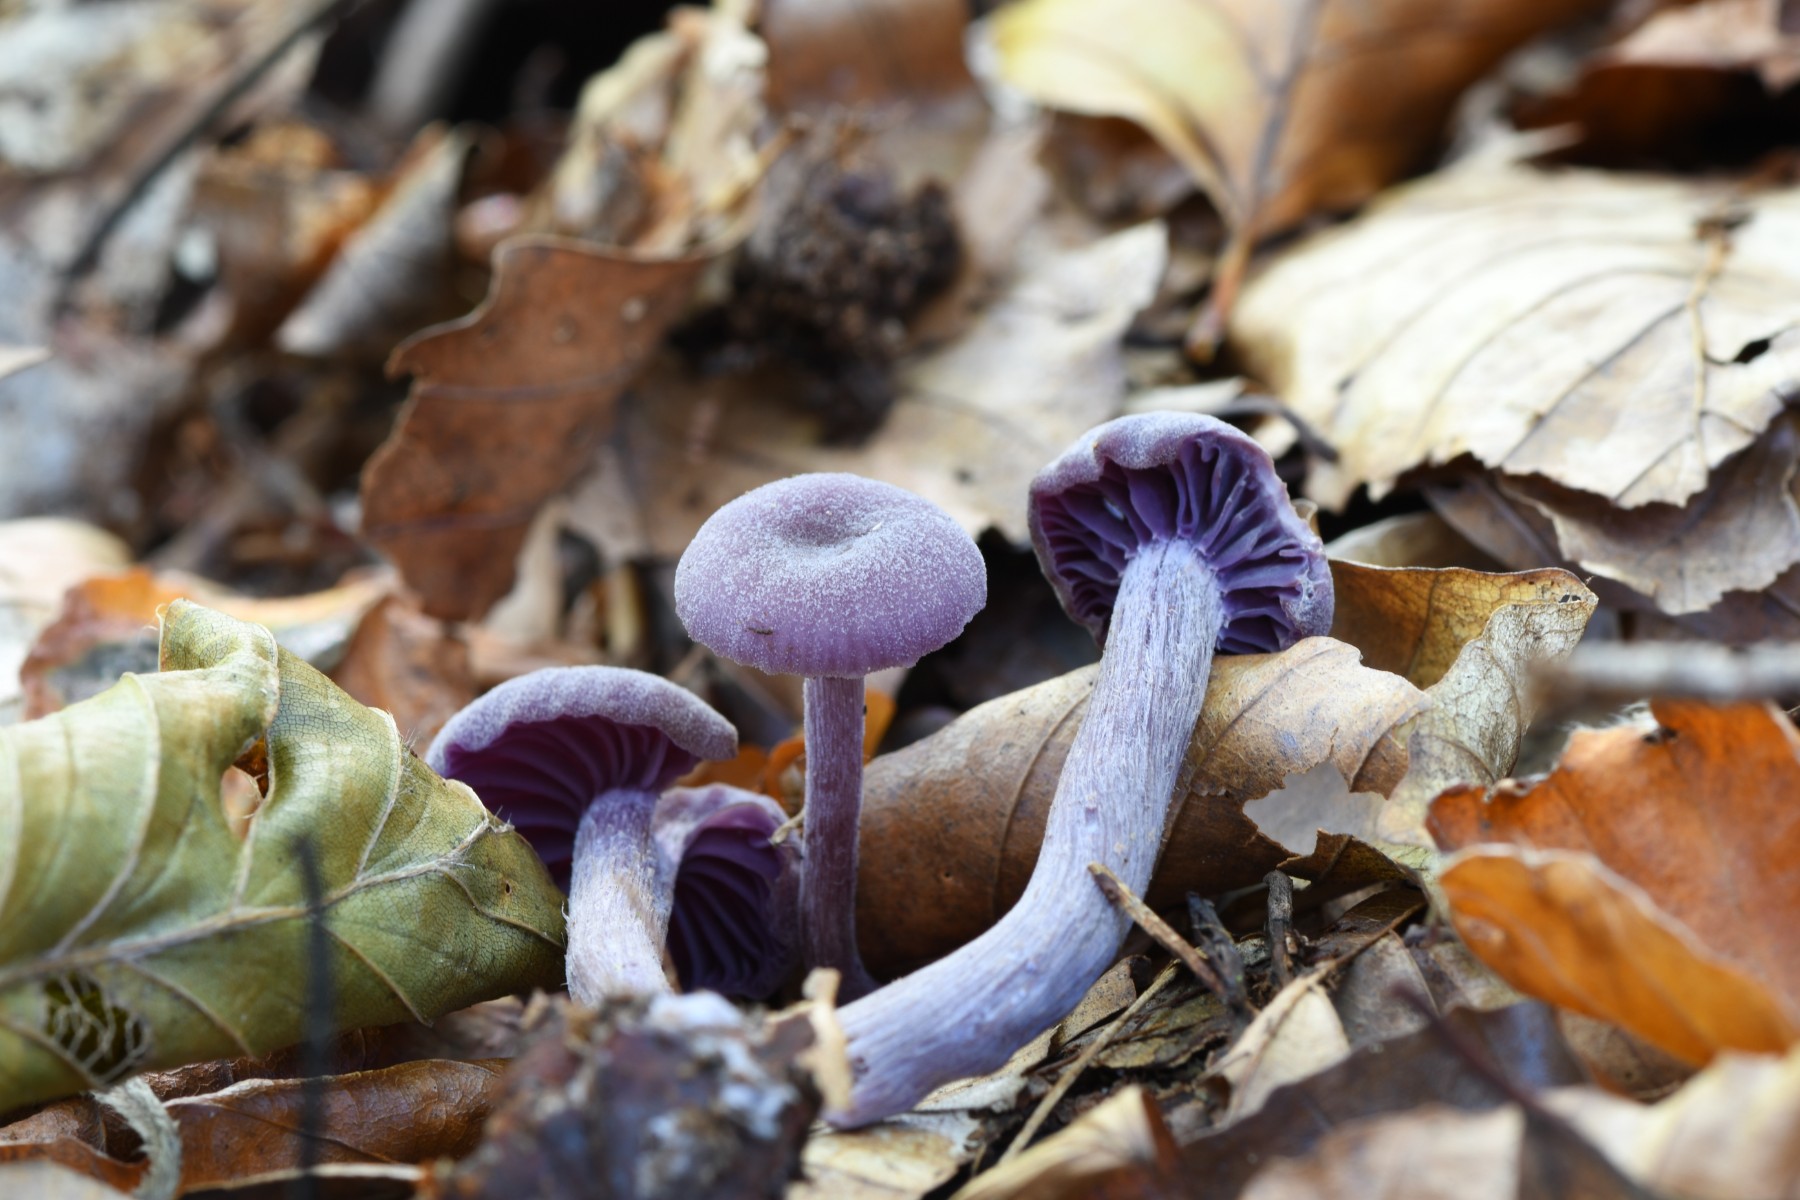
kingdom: Fungi
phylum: Basidiomycota
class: Agaricomycetes
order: Agaricales
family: Hydnangiaceae
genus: Laccaria
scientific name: Laccaria amethystina
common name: violet ametysthat
